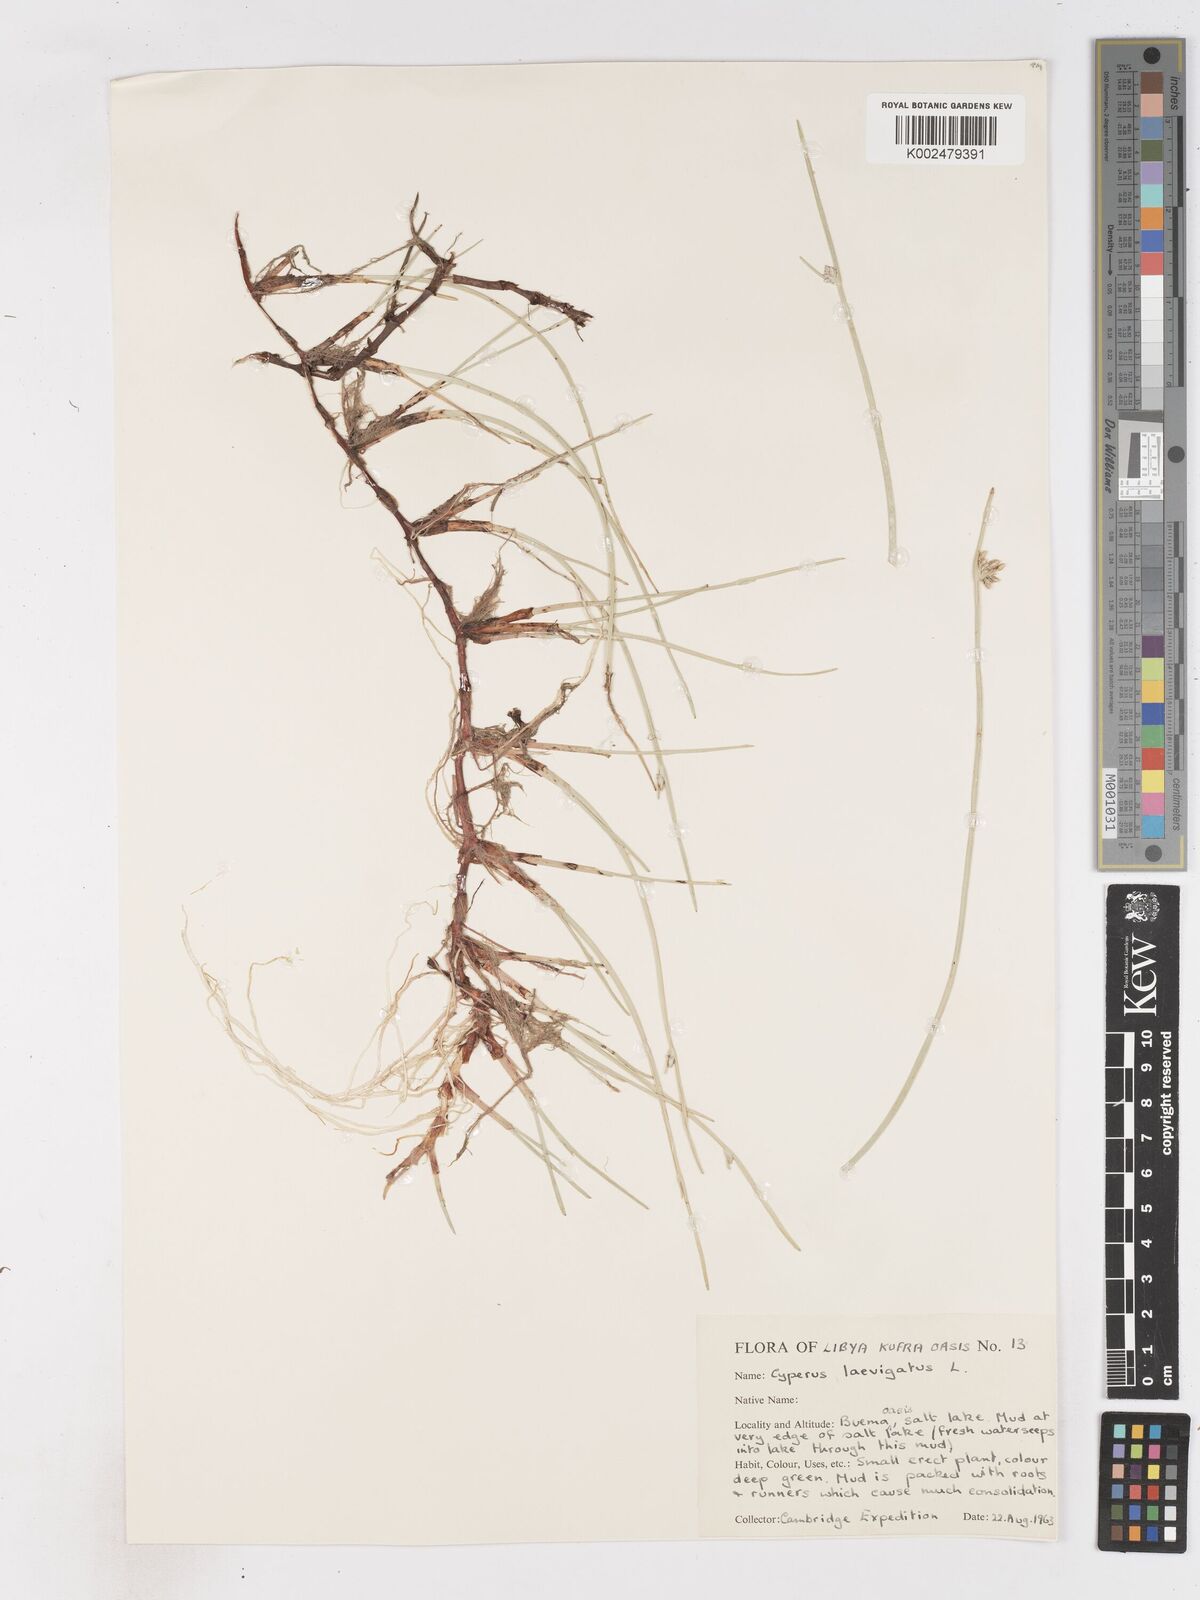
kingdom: Plantae
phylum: Tracheophyta
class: Liliopsida
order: Poales
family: Cyperaceae
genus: Cyperus
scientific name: Cyperus laevigatus
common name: Smooth flat sedge
